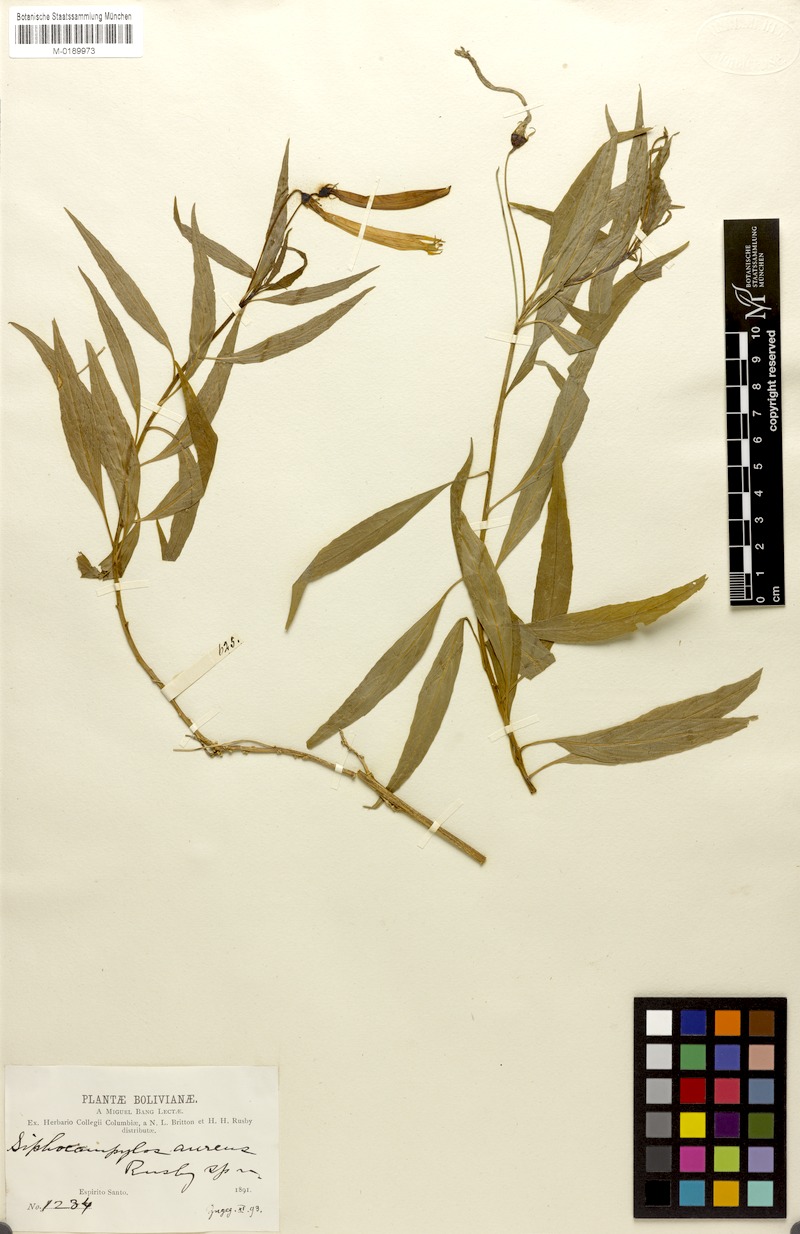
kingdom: Plantae
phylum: Tracheophyta
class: Magnoliopsida
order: Asterales
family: Campanulaceae
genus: Siphocampylus
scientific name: Siphocampylus aureus
